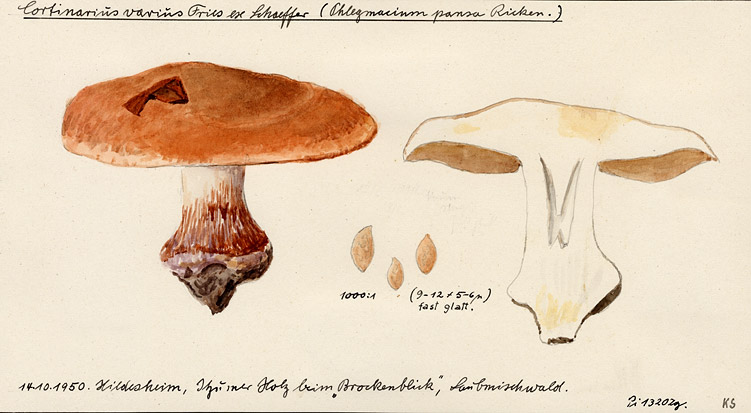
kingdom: Fungi
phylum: Basidiomycota
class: Agaricomycetes
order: Agaricales
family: Cortinariaceae
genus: Cortinarius
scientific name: Cortinarius varius
